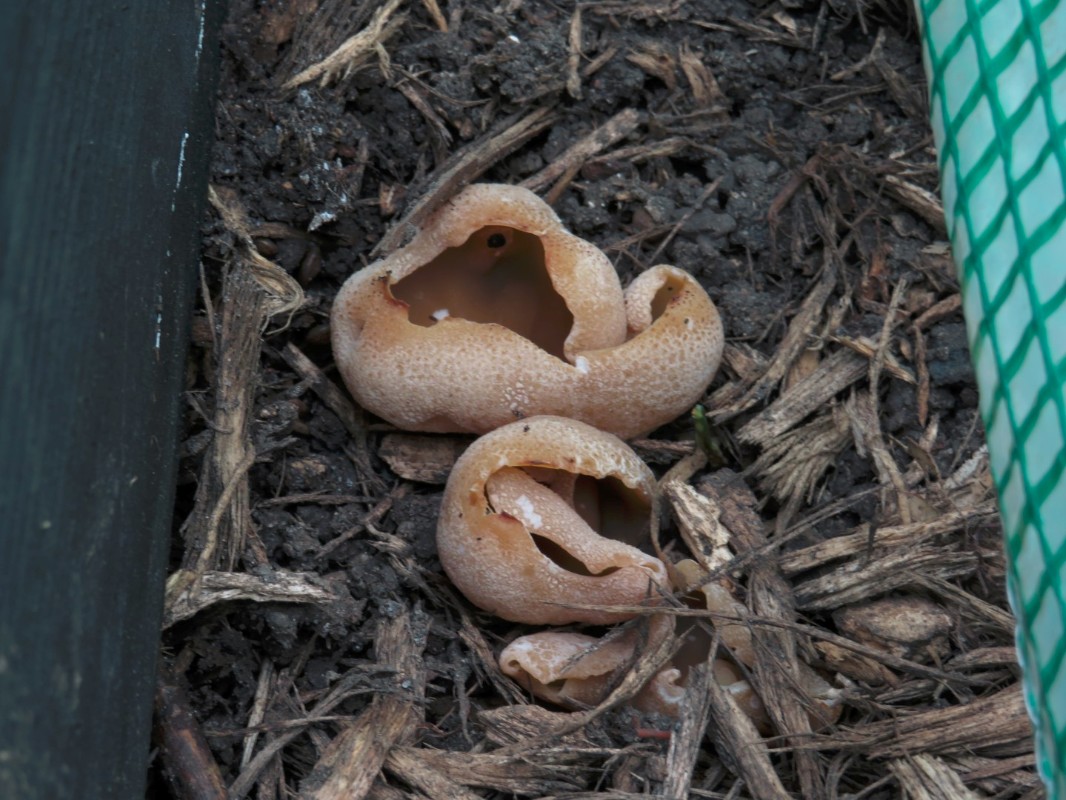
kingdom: Fungi
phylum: Ascomycota
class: Pezizomycetes
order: Pezizales
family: Pezizaceae
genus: Peziza
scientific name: Peziza vesiculosa
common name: blære-bægersvamp
